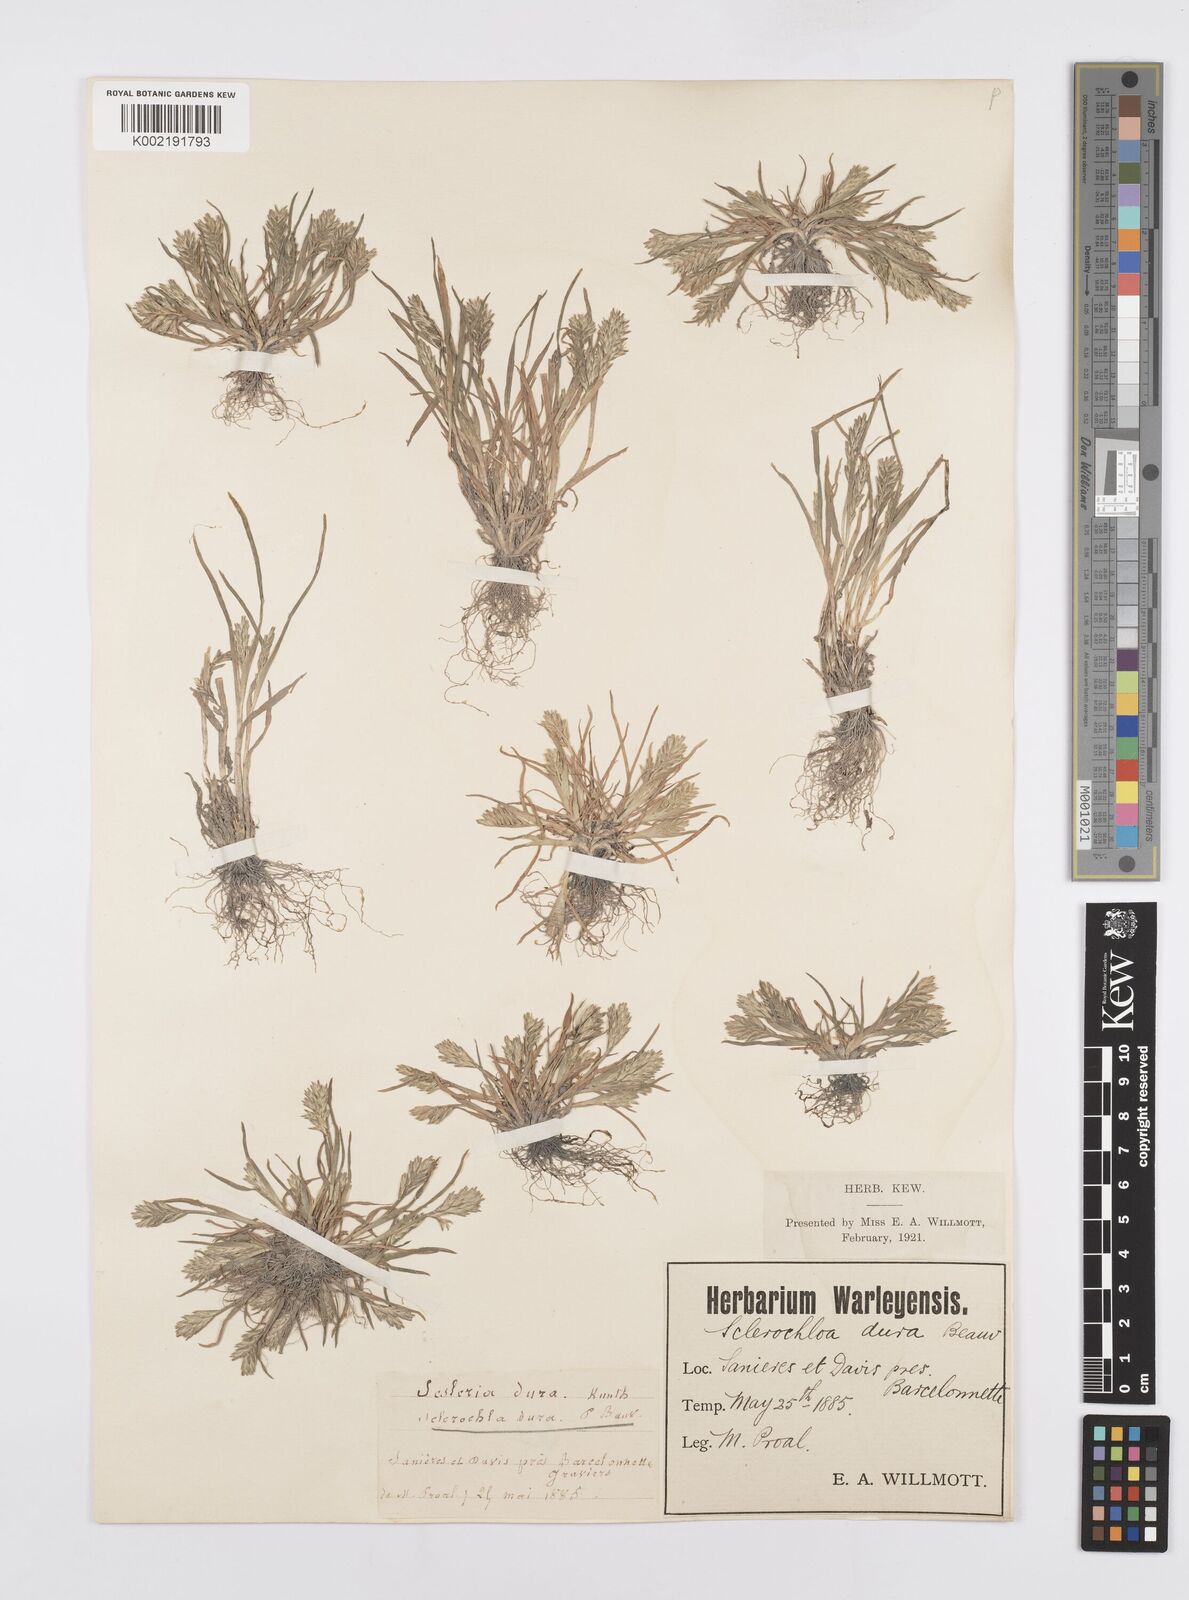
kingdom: Plantae
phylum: Tracheophyta
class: Liliopsida
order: Poales
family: Poaceae
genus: Sclerochloa
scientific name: Sclerochloa dura
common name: Common hardgrass
